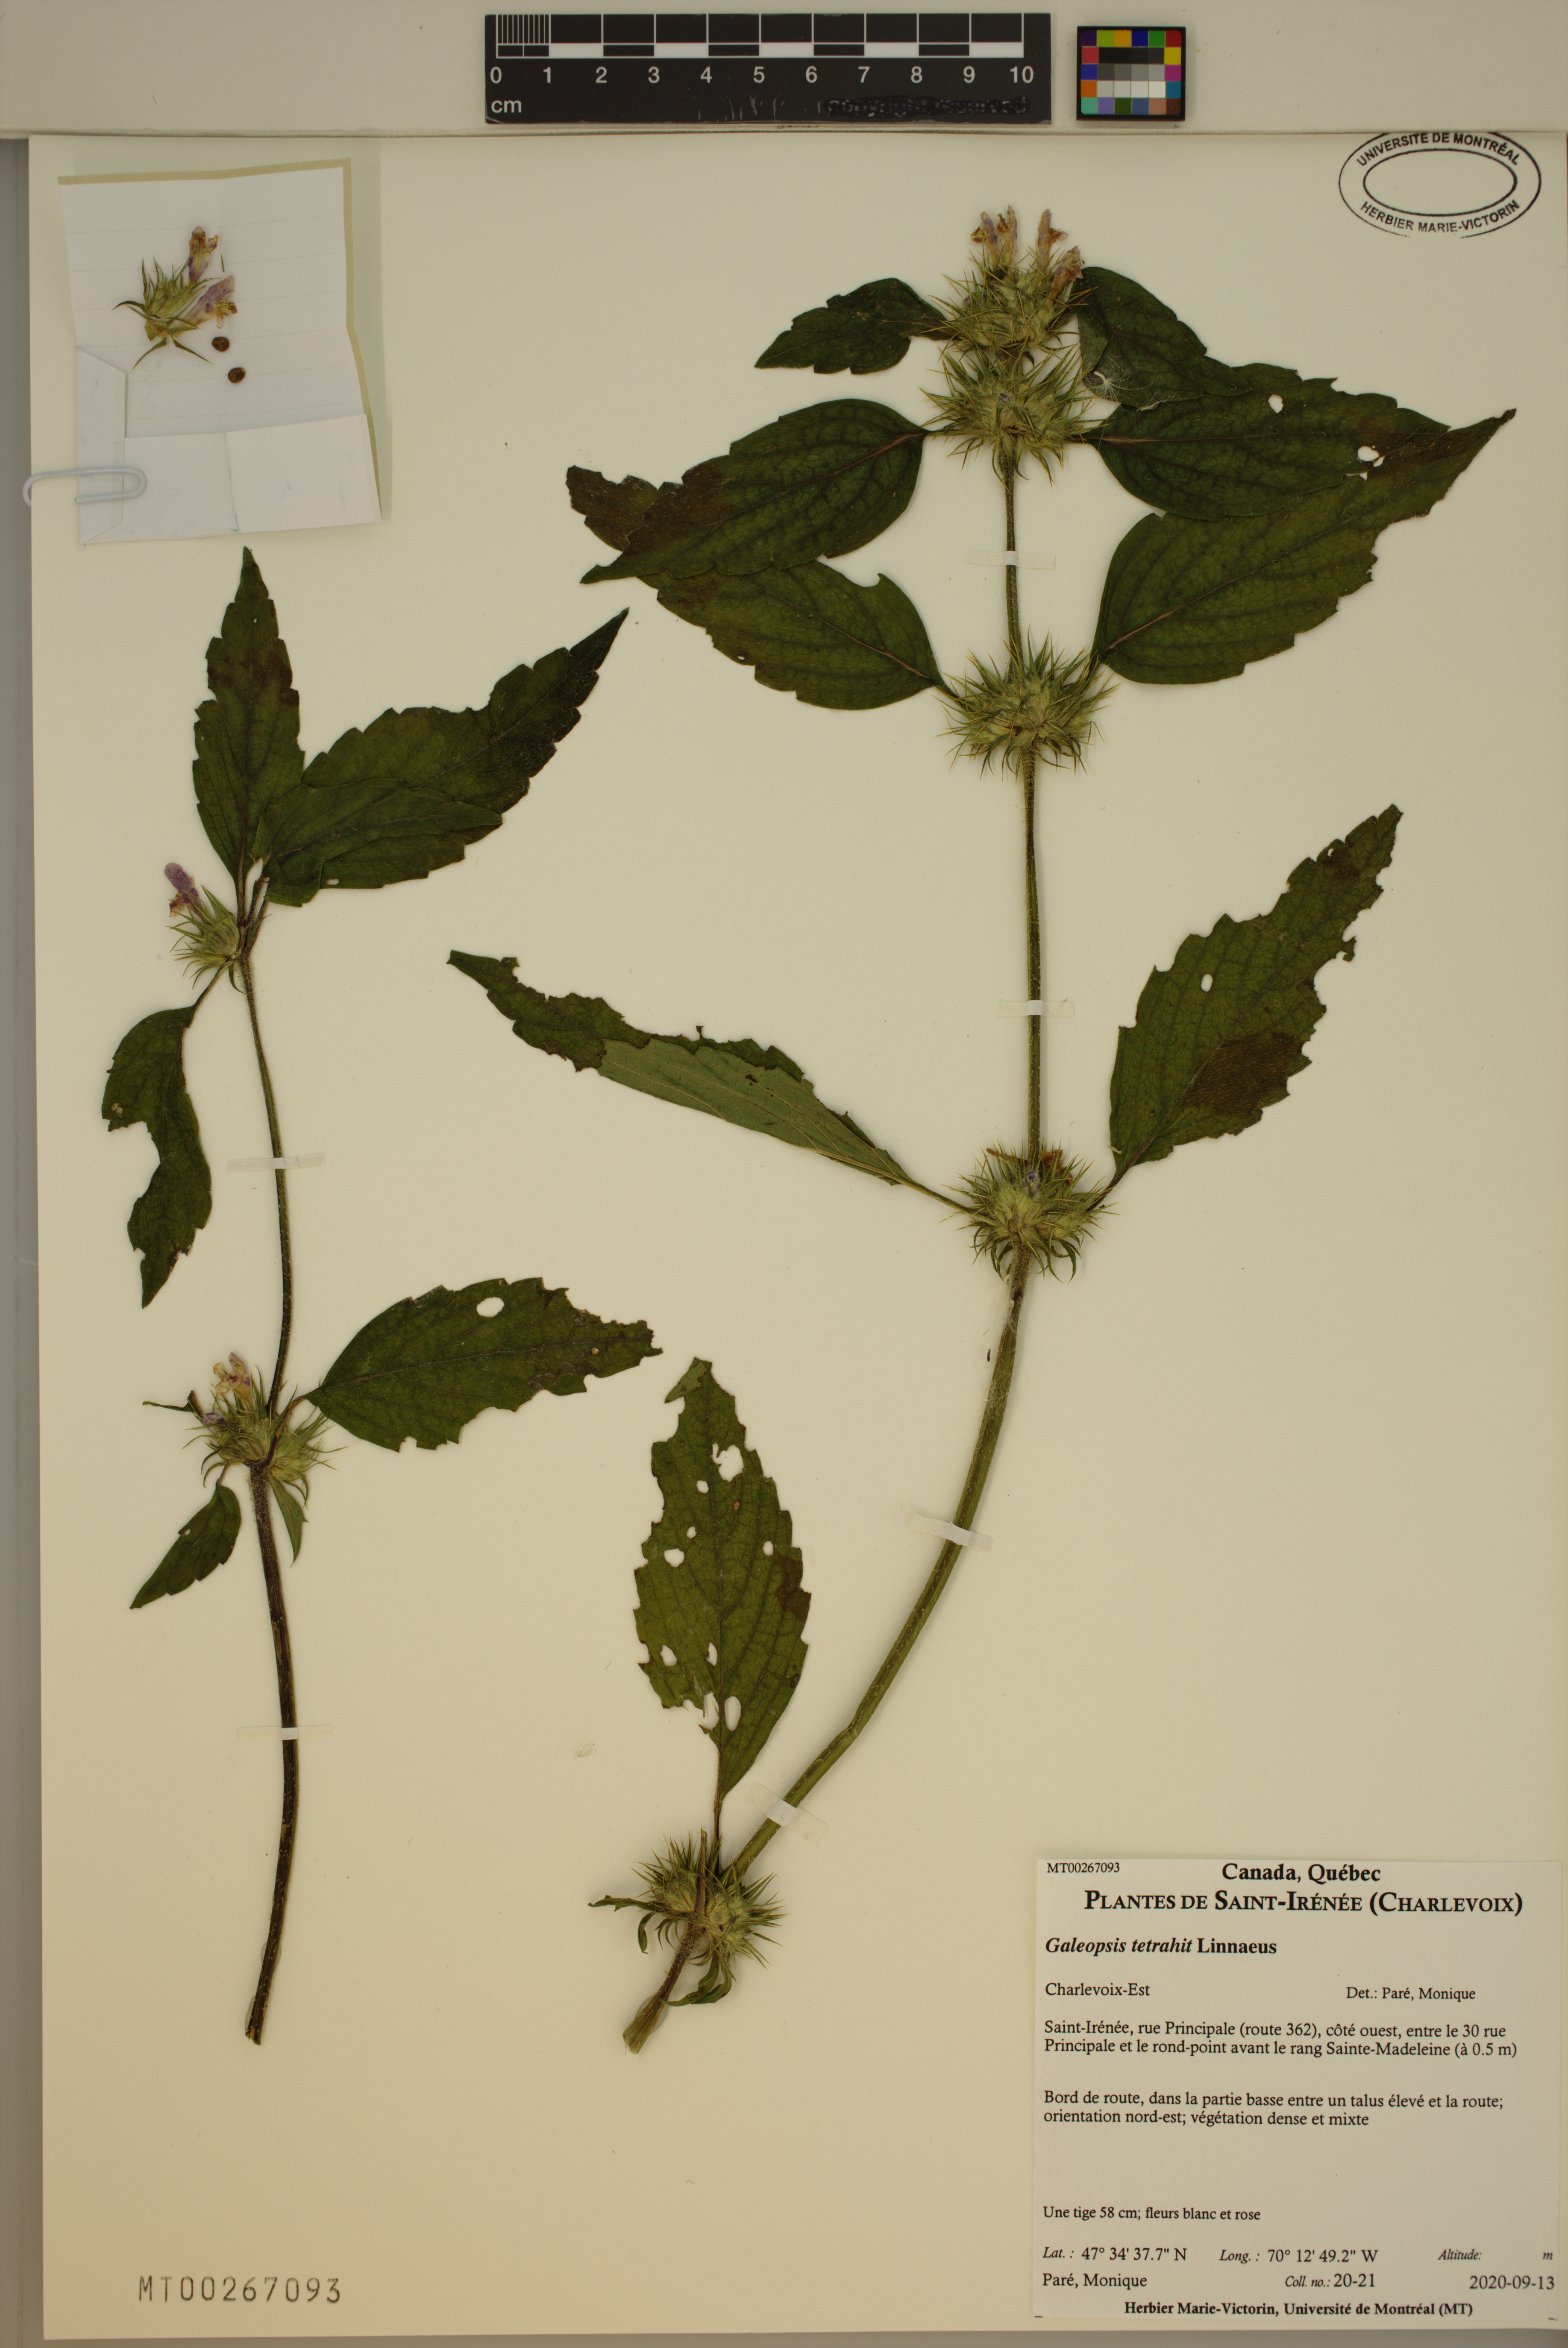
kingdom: Plantae
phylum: Tracheophyta
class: Magnoliopsida
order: Lamiales
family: Lamiaceae
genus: Galeopsis
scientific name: Galeopsis tetrahit
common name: Common hemp-nettle
